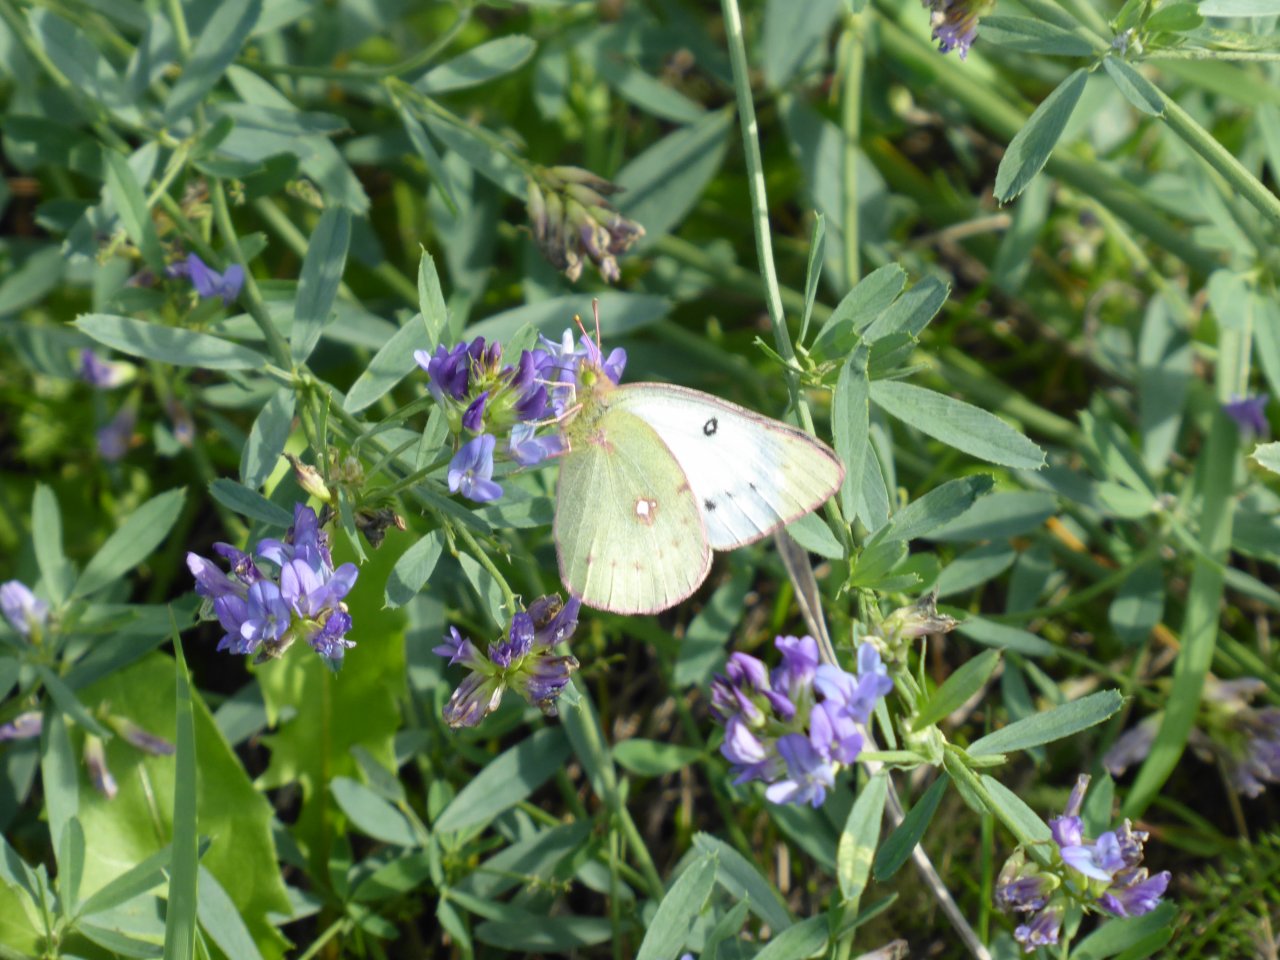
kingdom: Animalia
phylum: Arthropoda
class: Insecta
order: Lepidoptera
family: Pieridae
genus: Colias
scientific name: Colias philodice
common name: Clouded Sulphur
